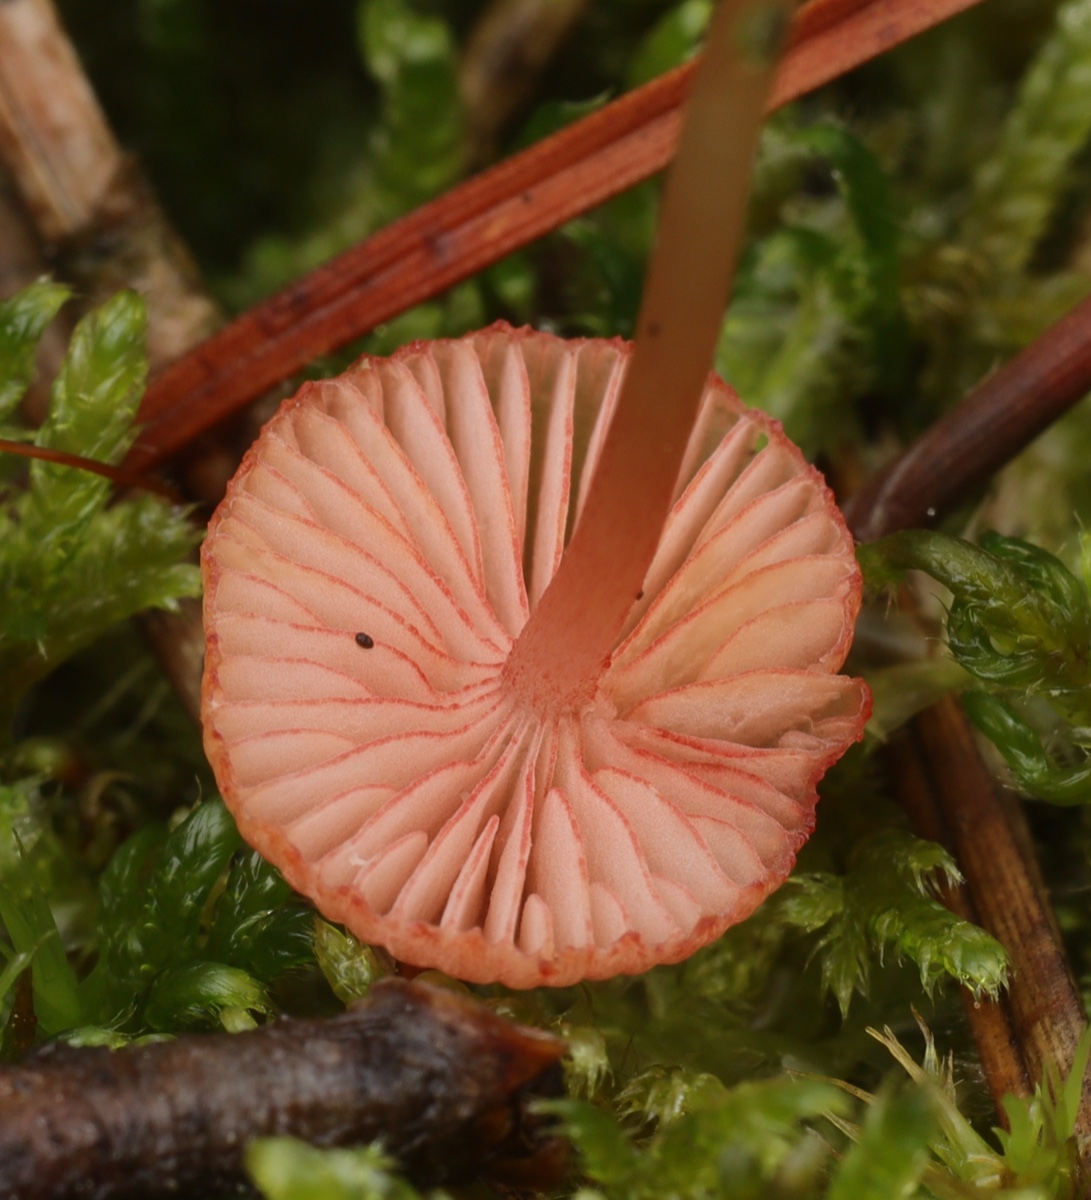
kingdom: Fungi
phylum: Basidiomycota
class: Agaricomycetes
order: Agaricales
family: Mycenaceae
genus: Mycena
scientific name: Mycena rosella
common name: rosenrød huesvamp
